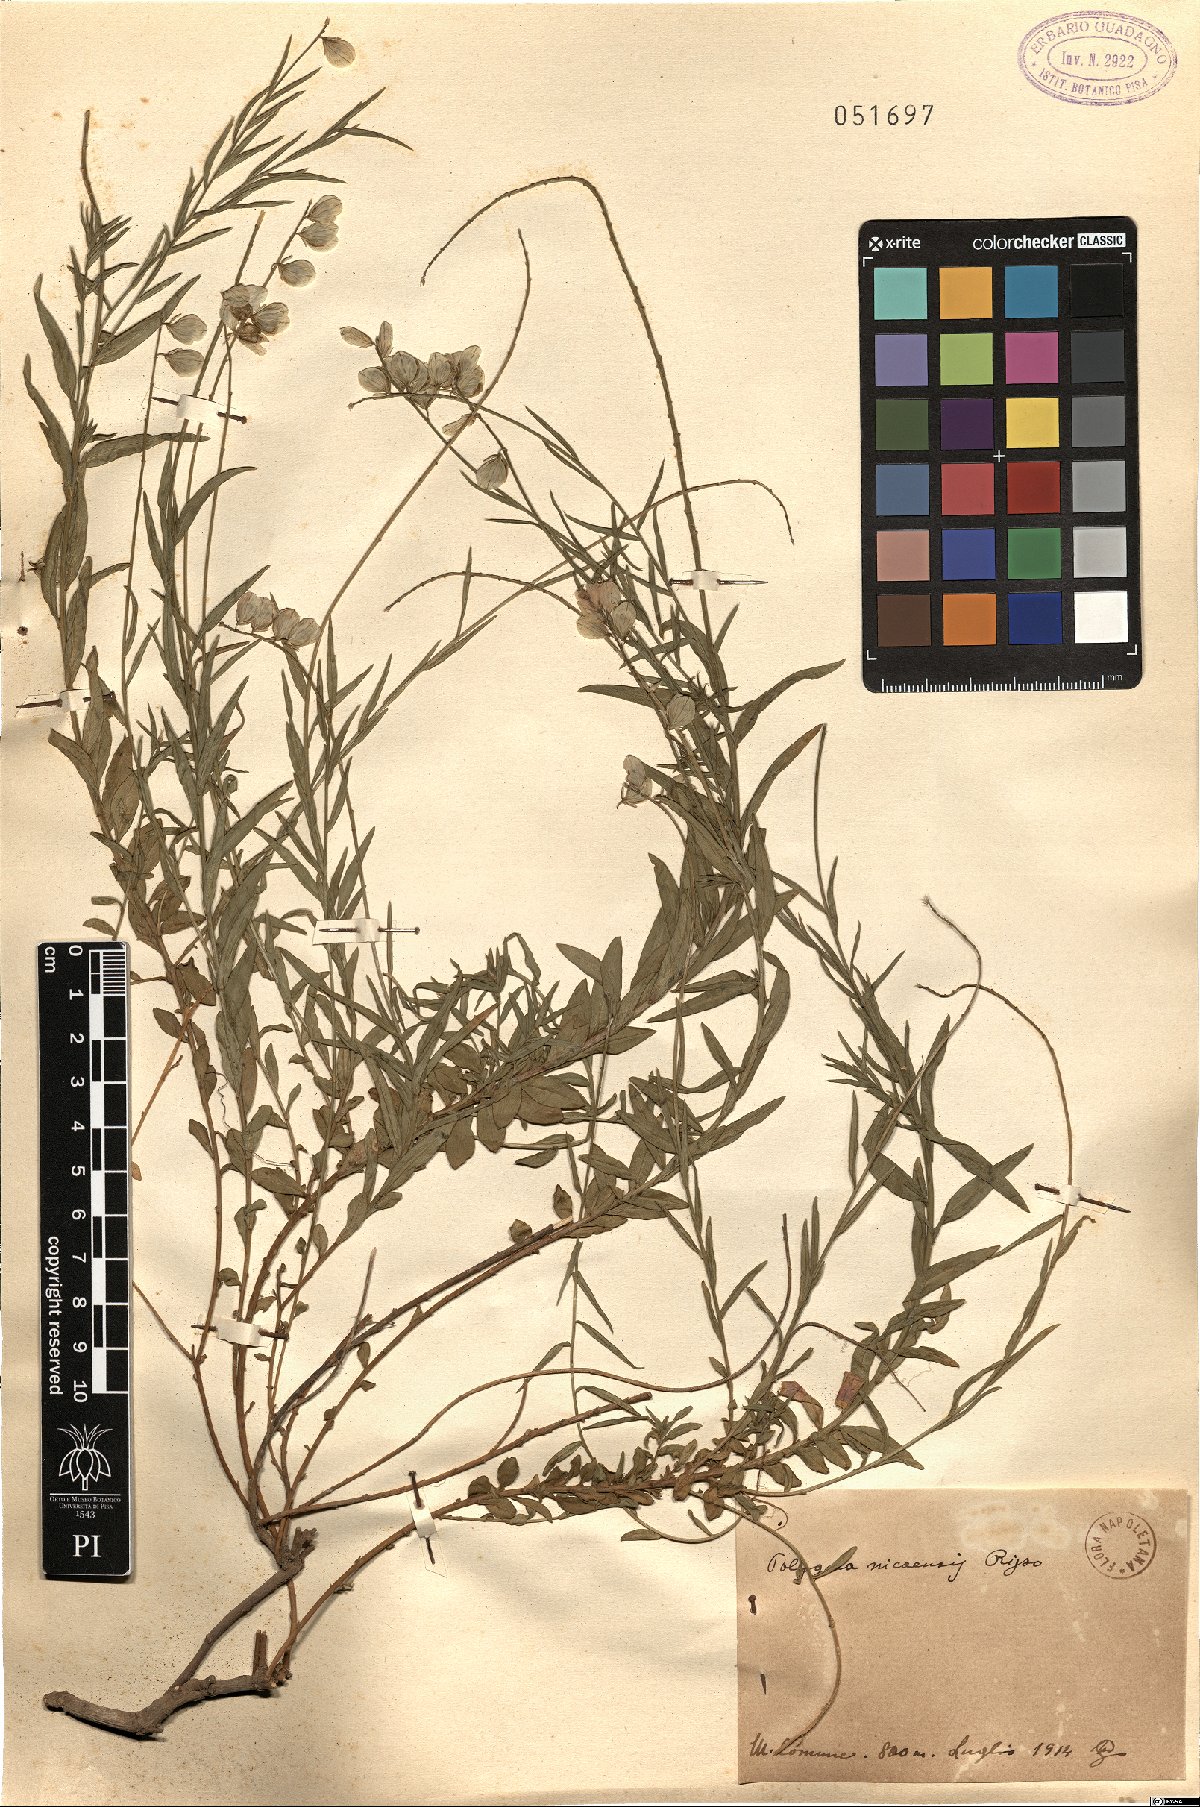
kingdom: Plantae
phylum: Tracheophyta
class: Magnoliopsida
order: Fabales
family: Polygalaceae
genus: Polygala
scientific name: Polygala nicaeensis
